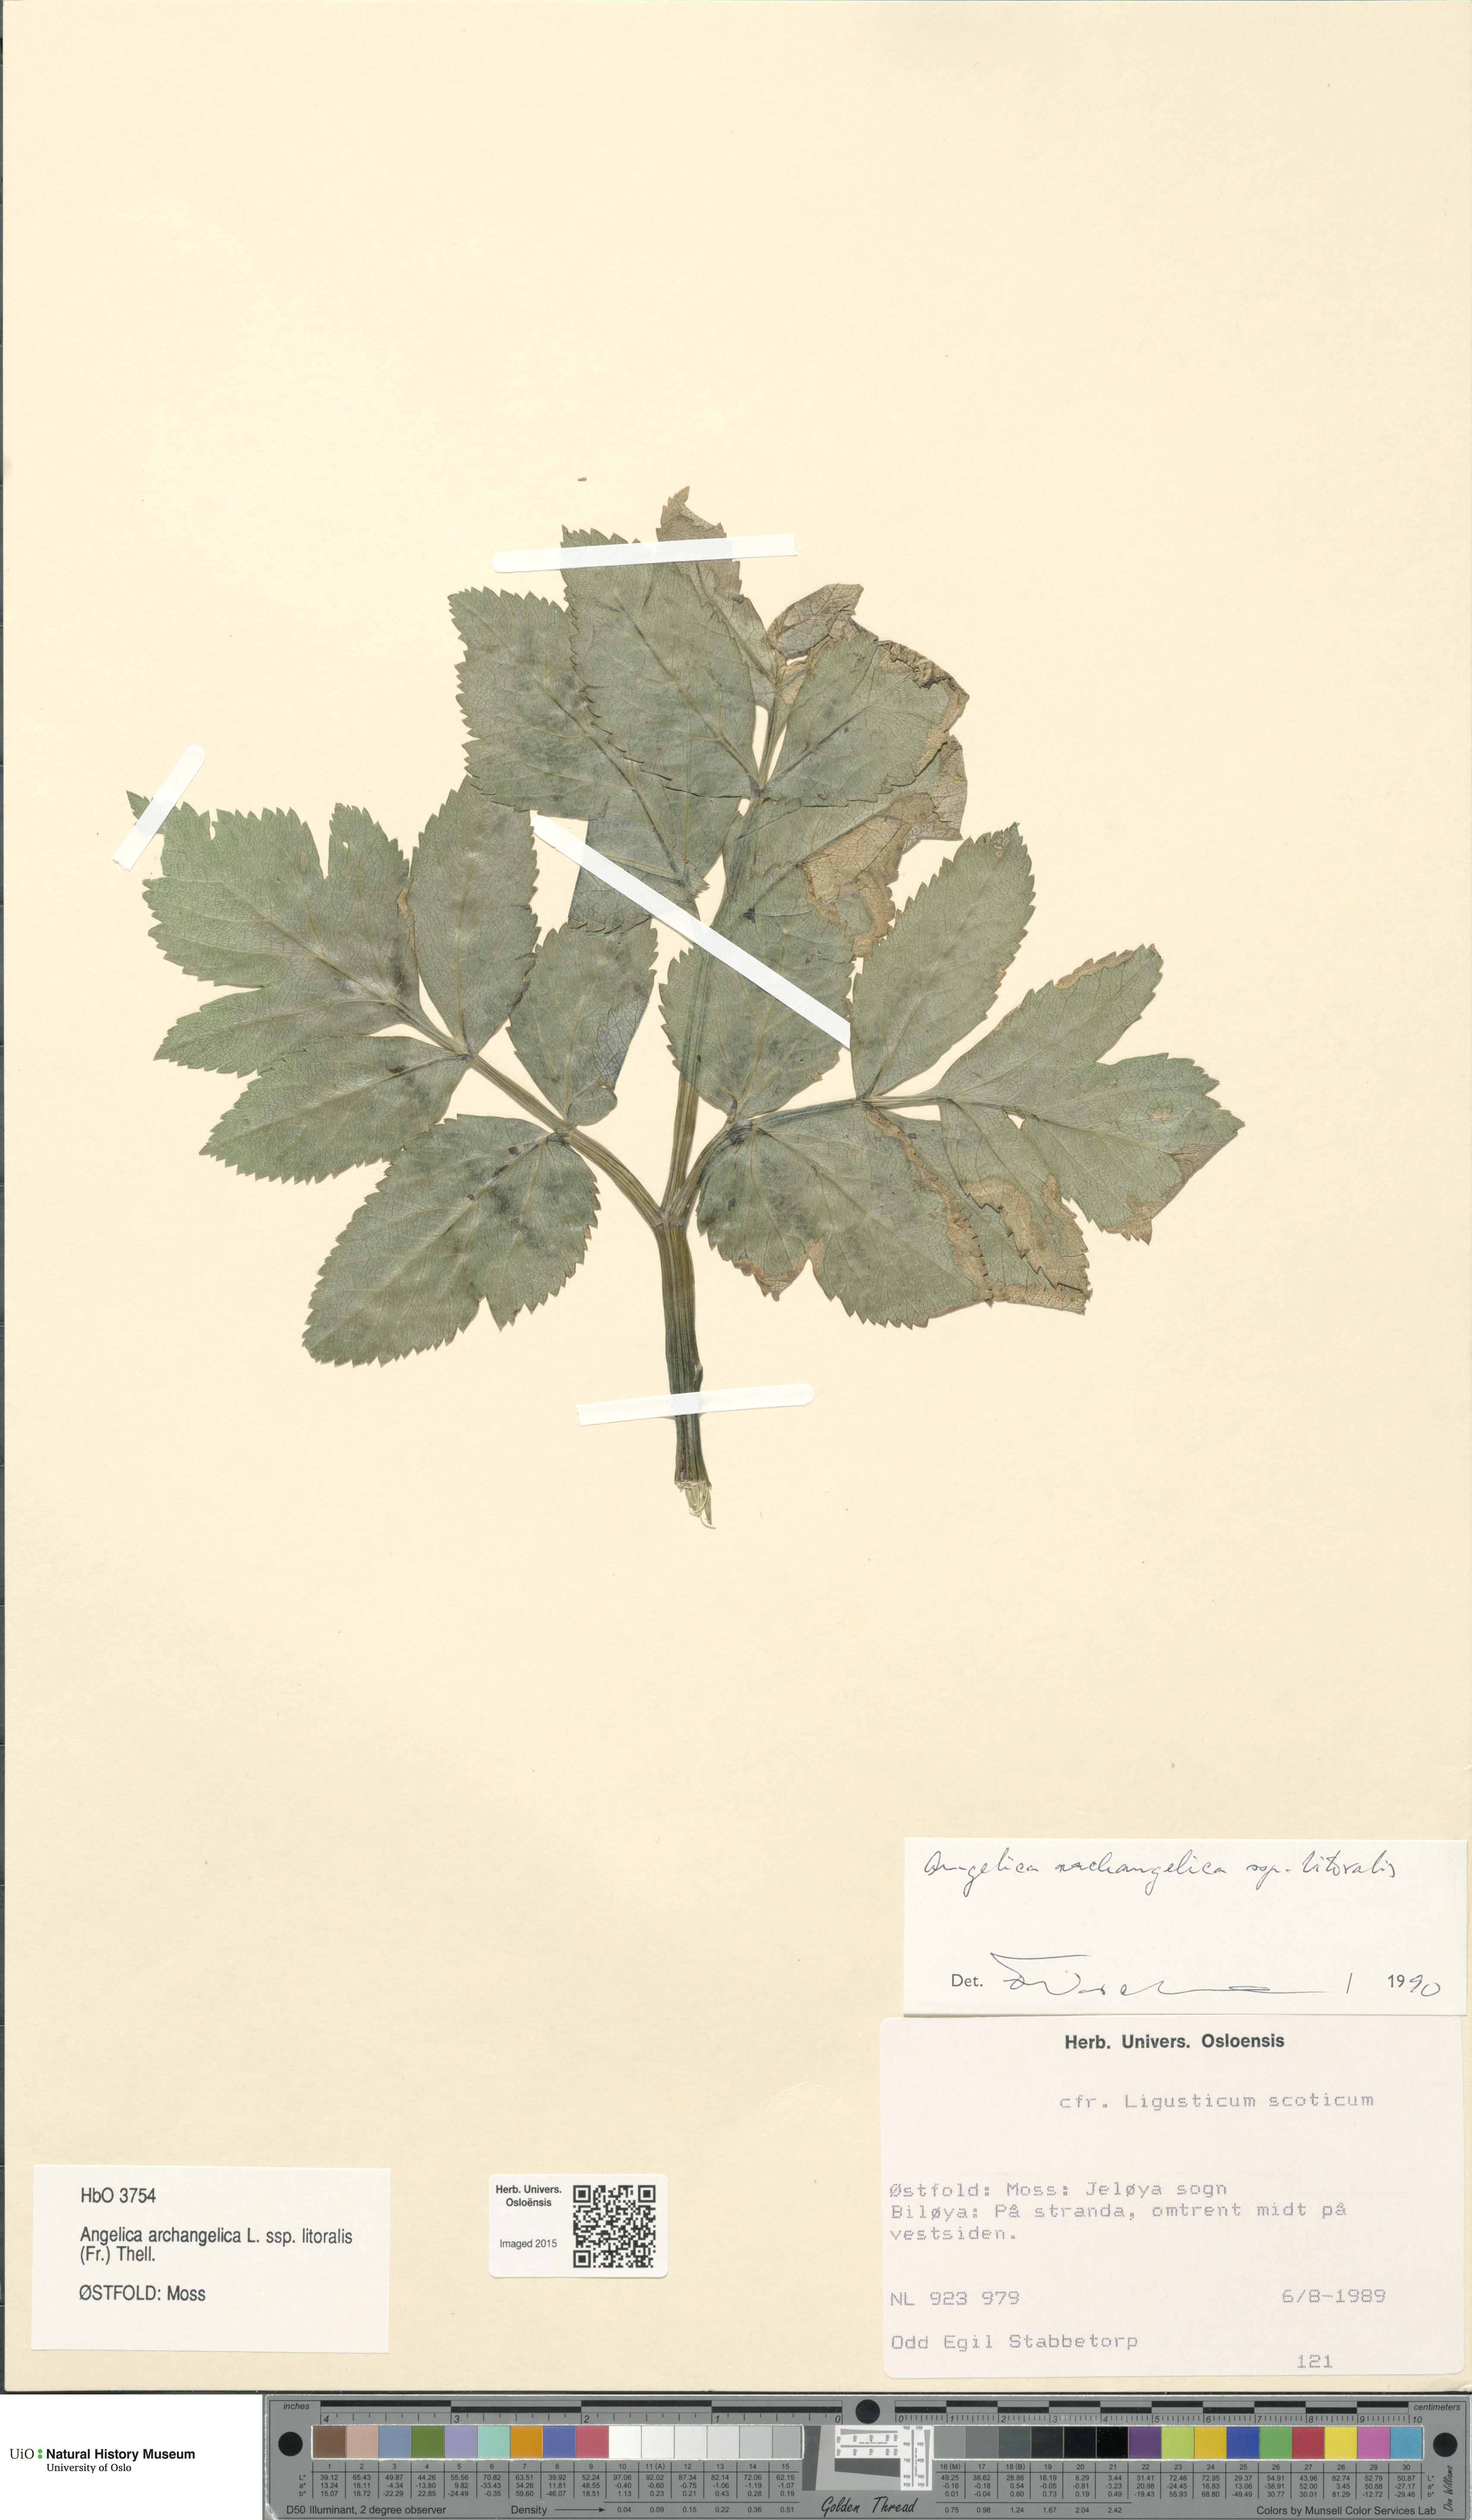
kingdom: Plantae
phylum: Tracheophyta
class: Magnoliopsida
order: Apiales
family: Apiaceae
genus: Angelica
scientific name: Angelica archangelica
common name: Garden angelica
